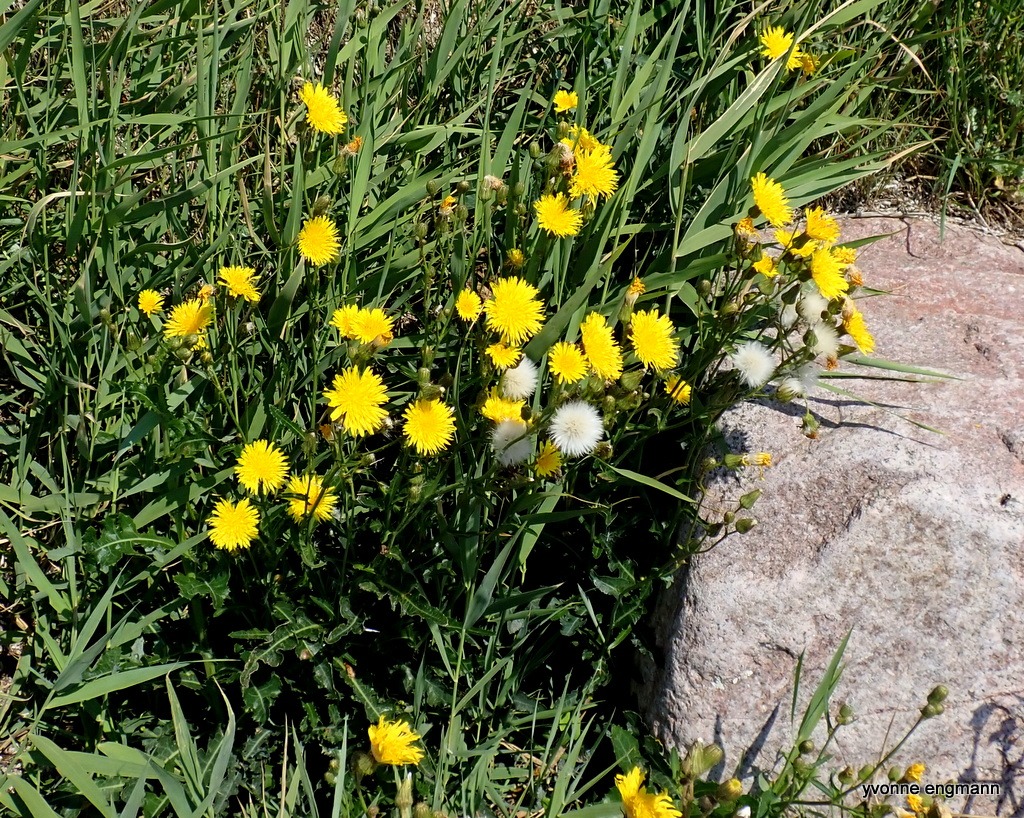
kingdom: Plantae
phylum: Tracheophyta
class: Magnoliopsida
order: Asterales
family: Asteraceae
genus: Sonchus
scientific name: Sonchus arvensis
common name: Ager-svinemælk
